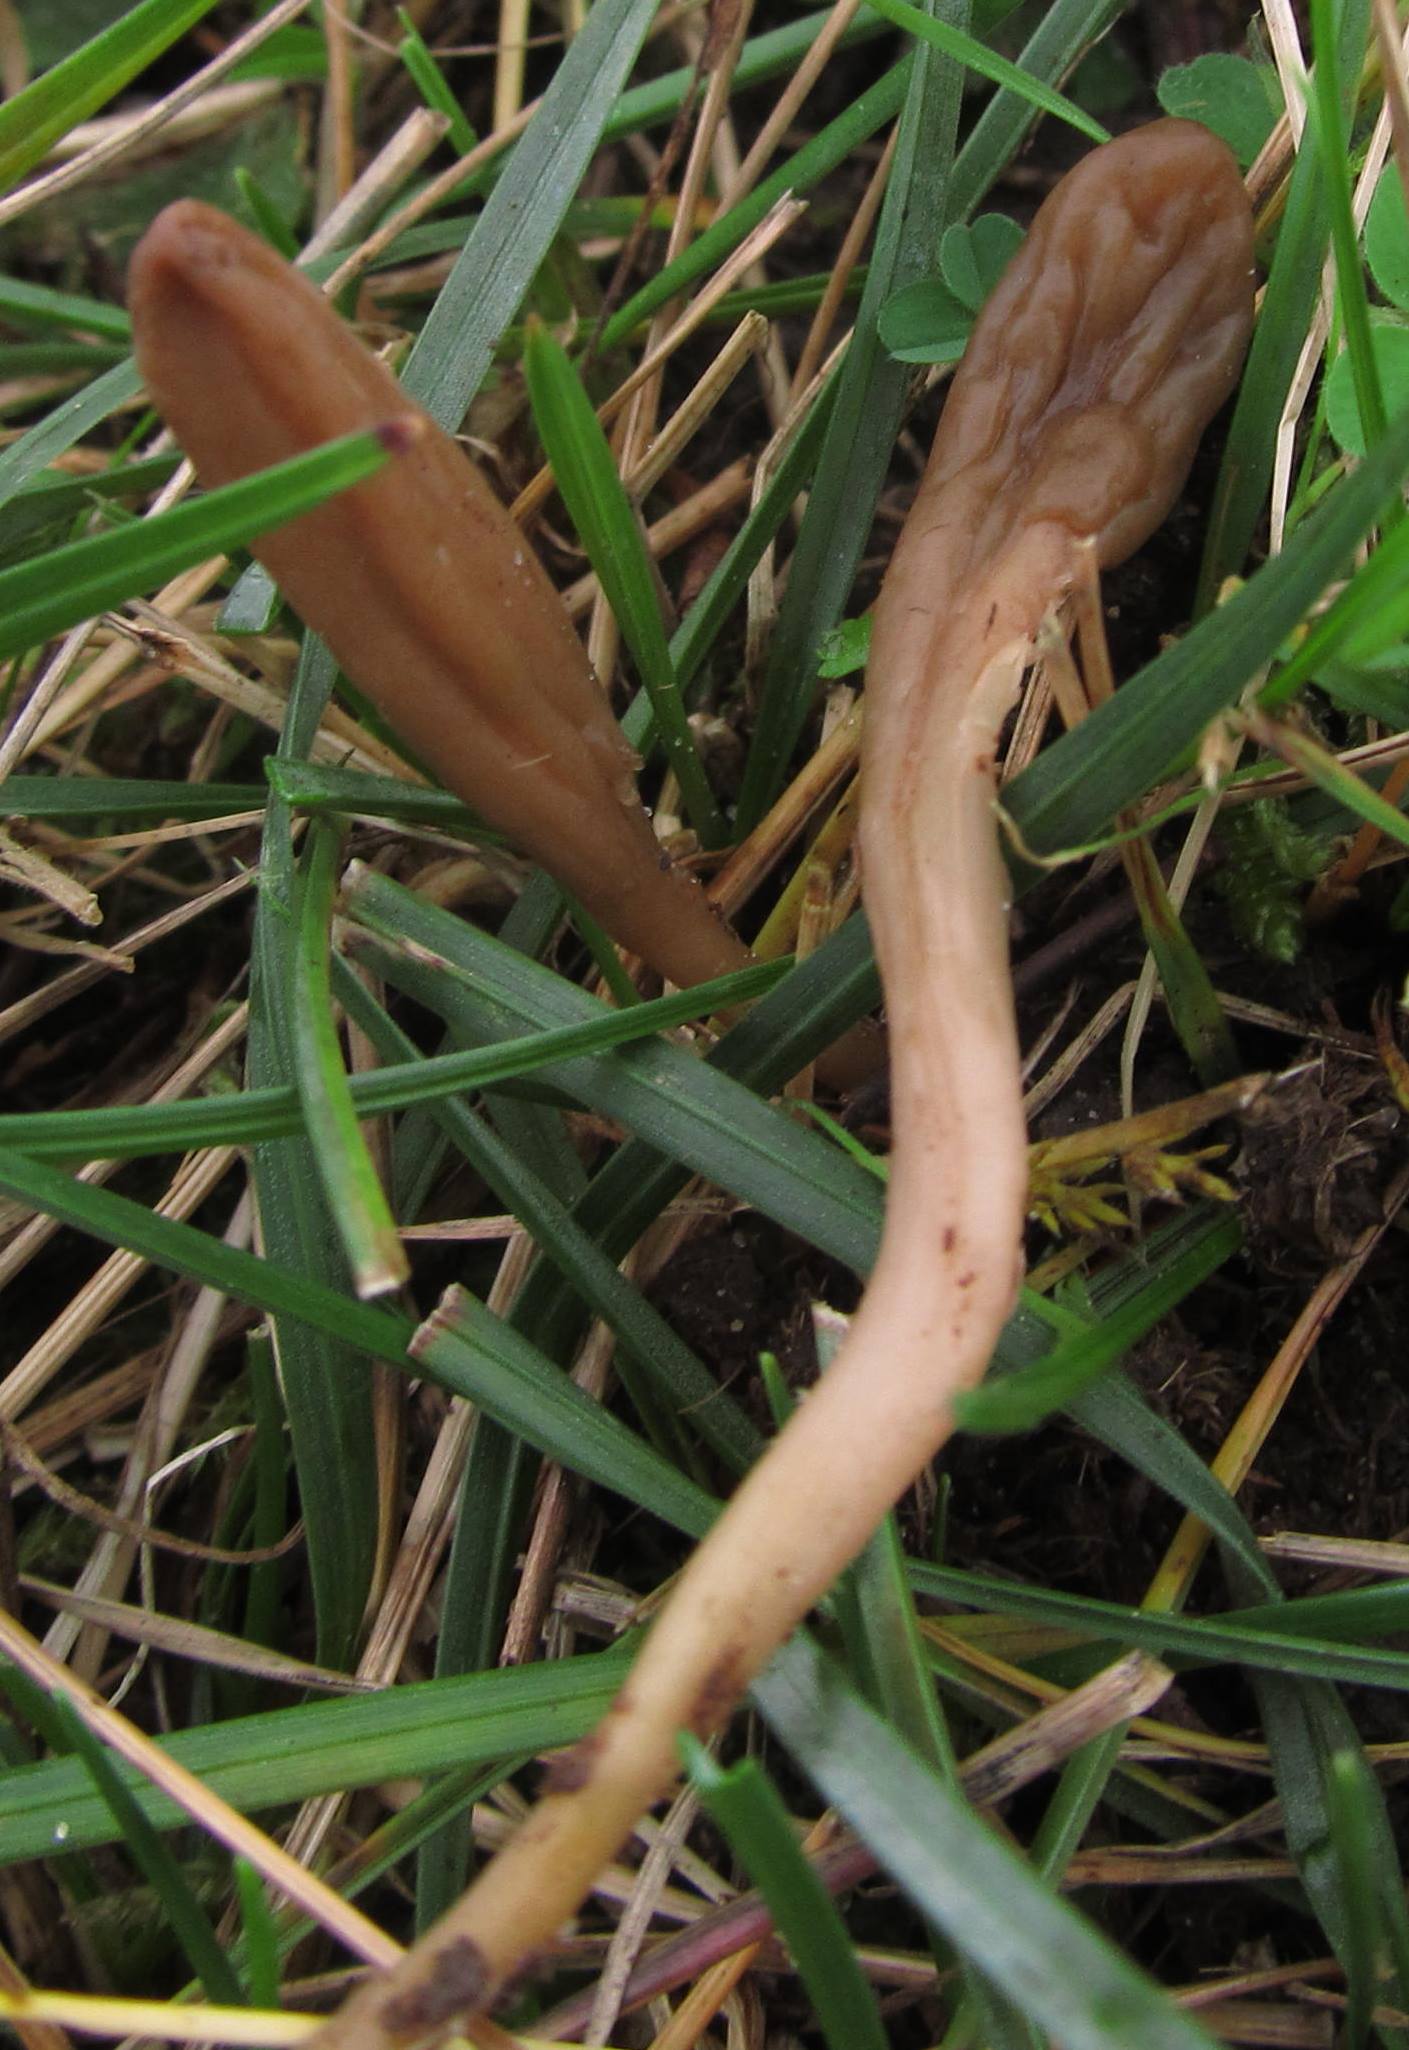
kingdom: Fungi
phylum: Ascomycota
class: Leotiomycetes
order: Leotiales
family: Leotiaceae
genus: Microglossum
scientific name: Microglossum olivaceum
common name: olivenbrun farvetunge
